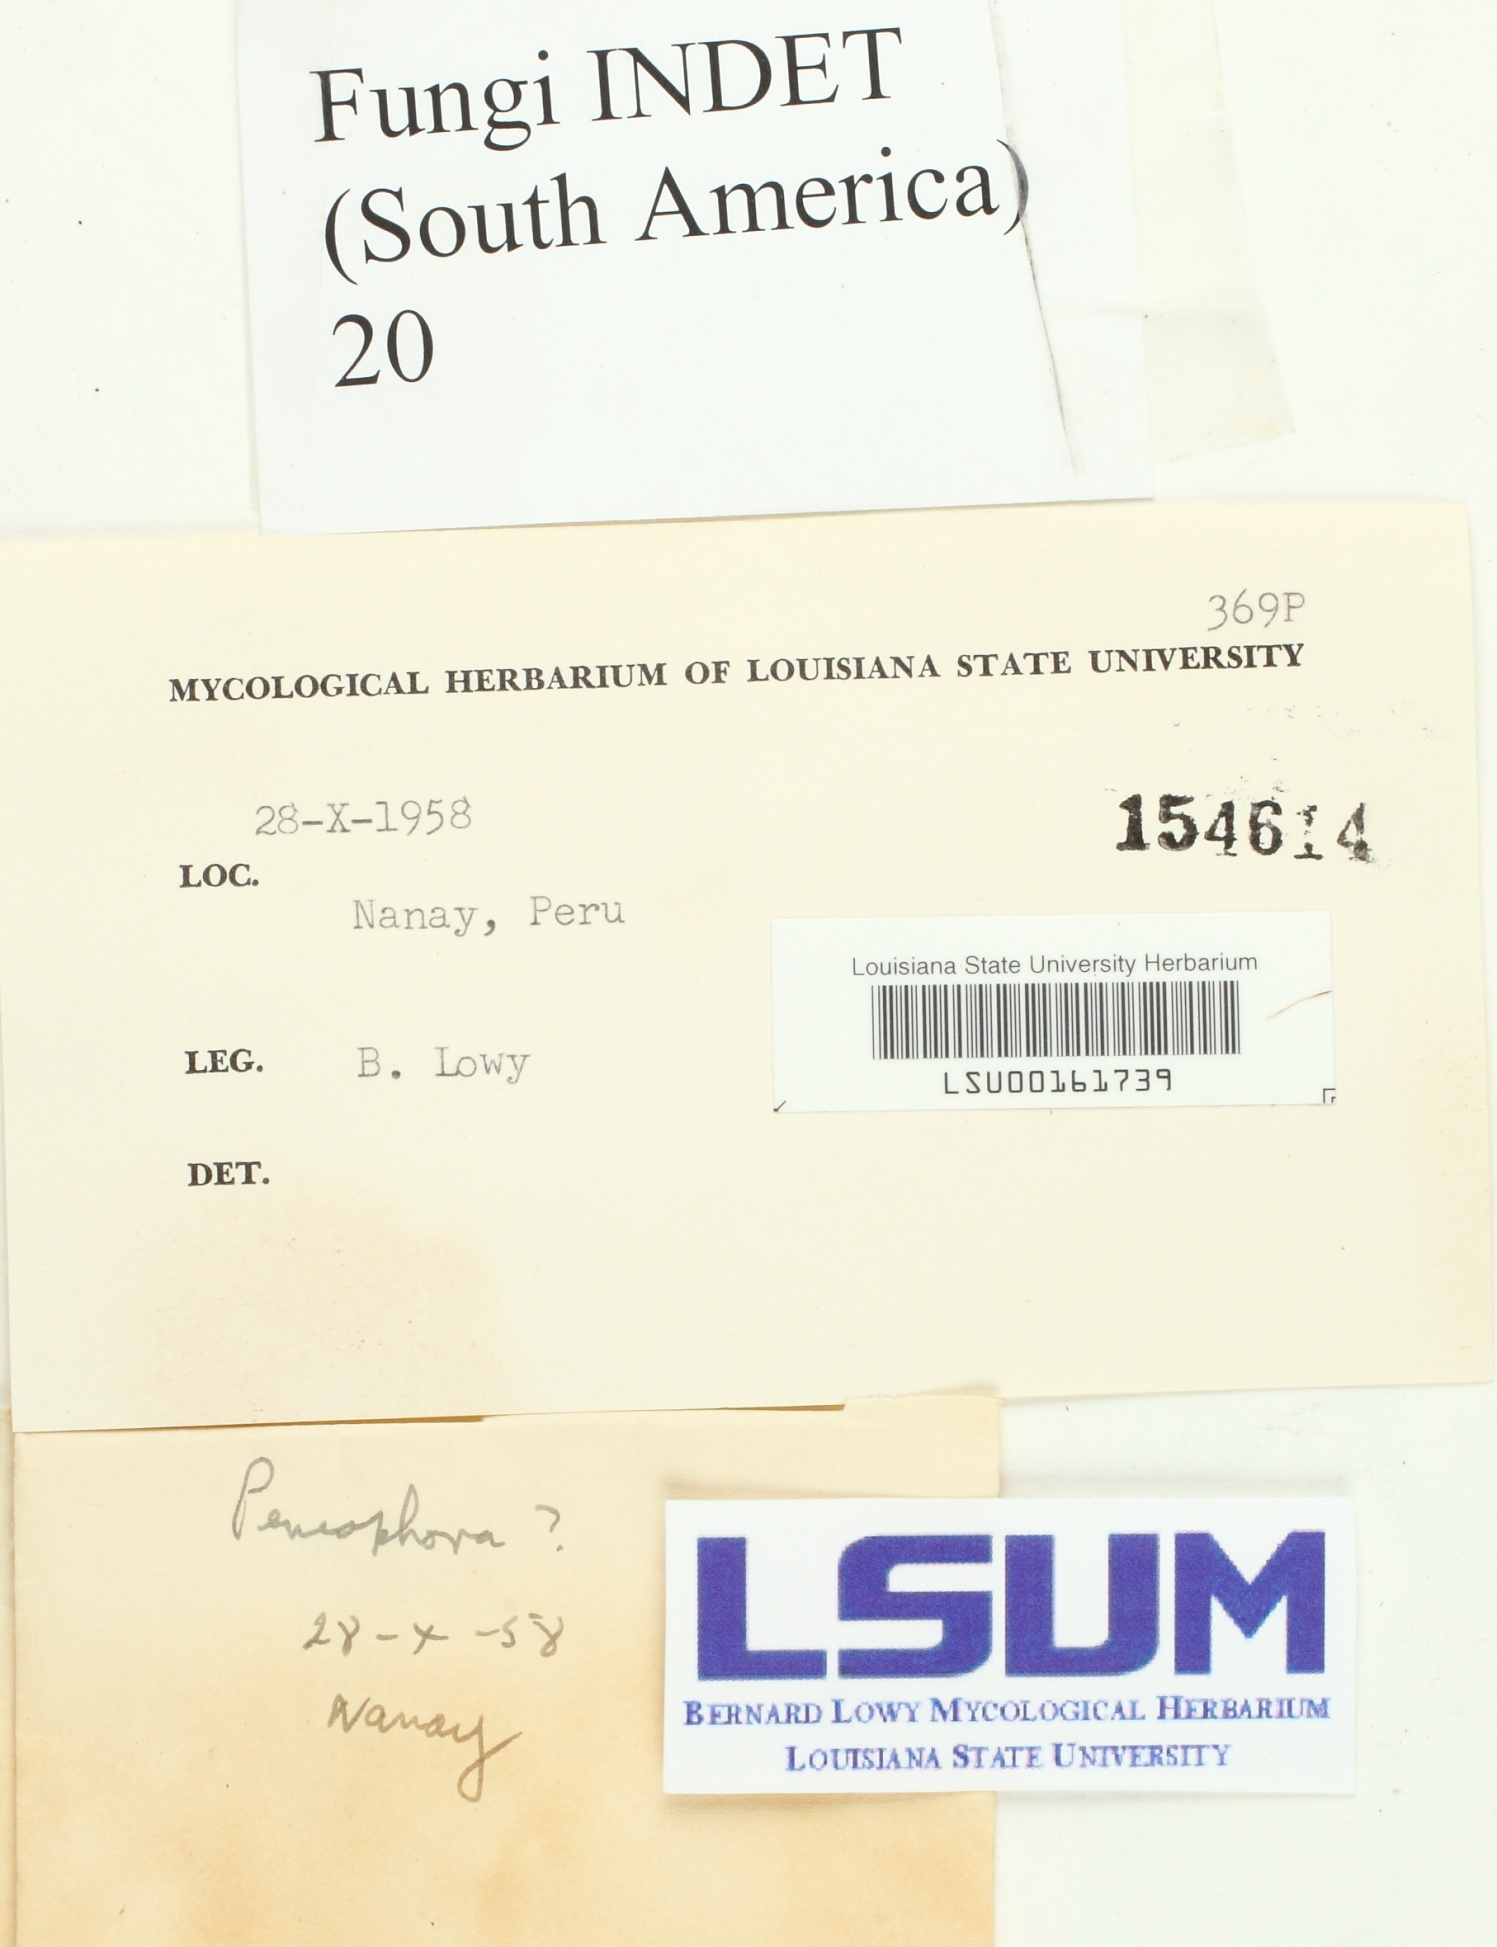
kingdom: Fungi
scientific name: Fungi
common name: Fungi
